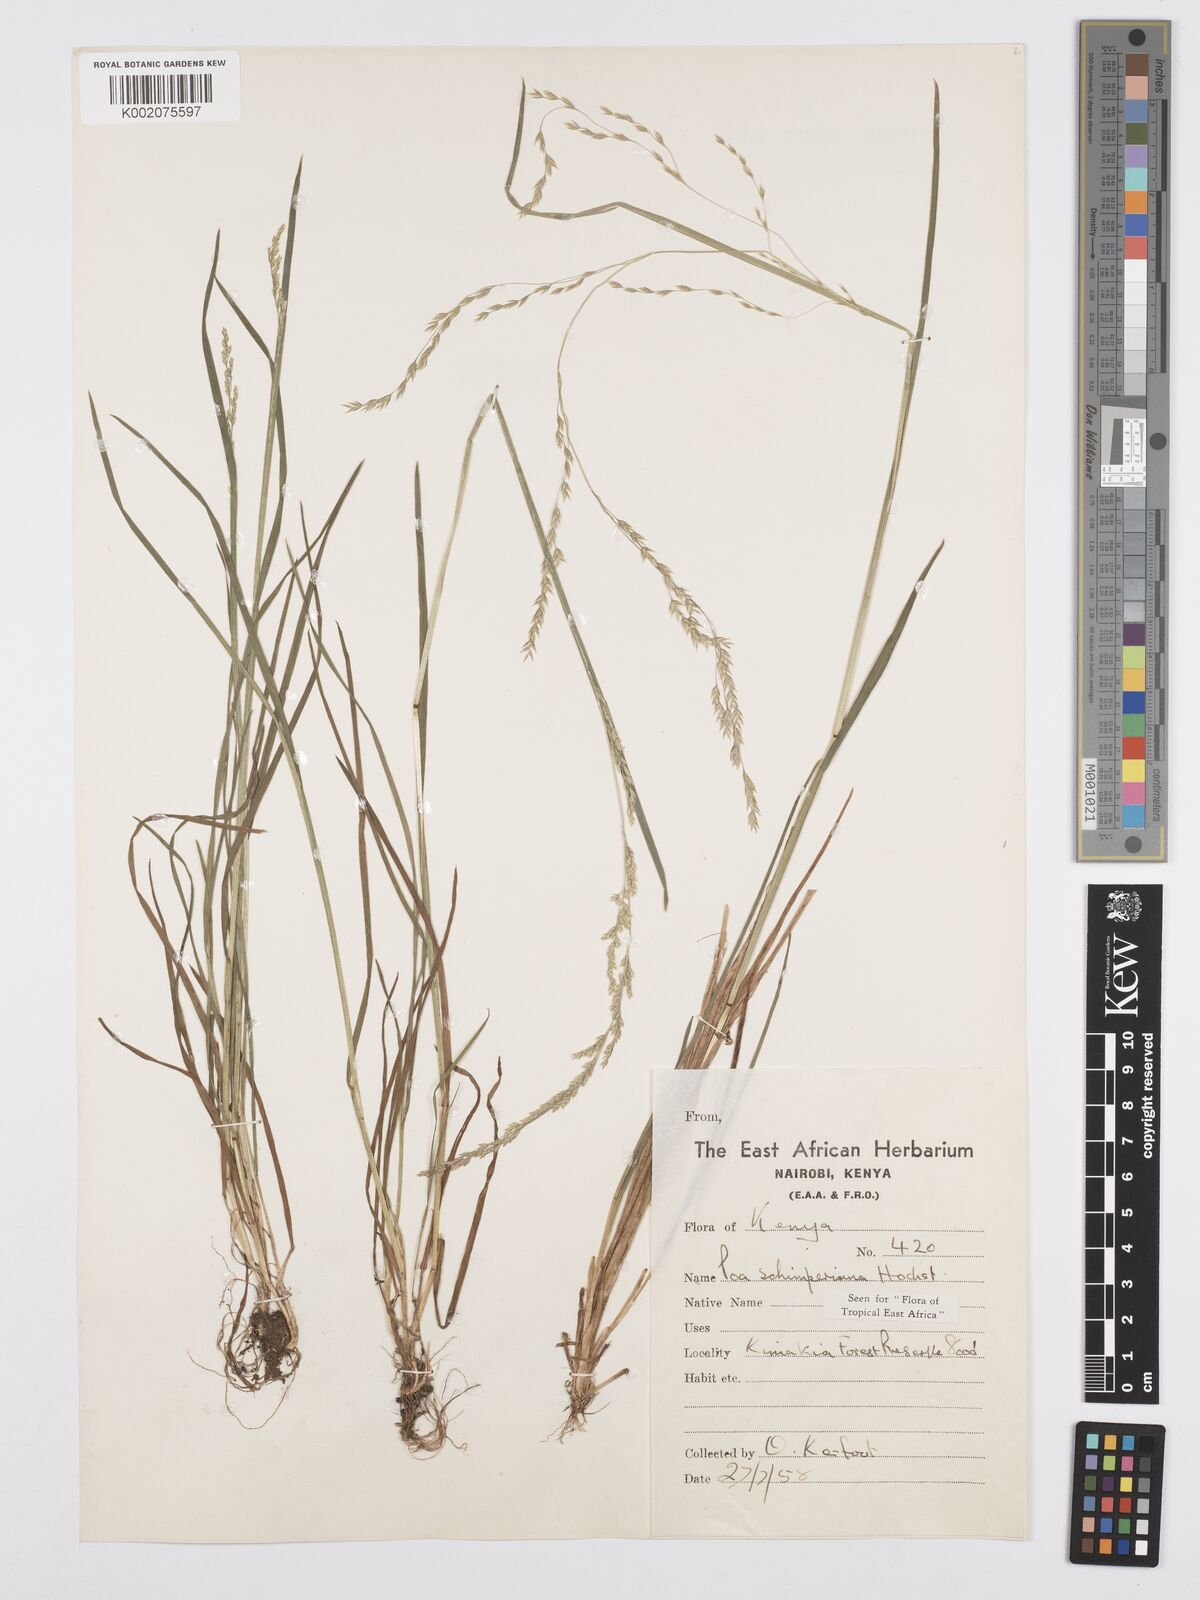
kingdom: Plantae
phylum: Tracheophyta
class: Liliopsida
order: Poales
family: Poaceae
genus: Poa
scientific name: Poa schimperiana
